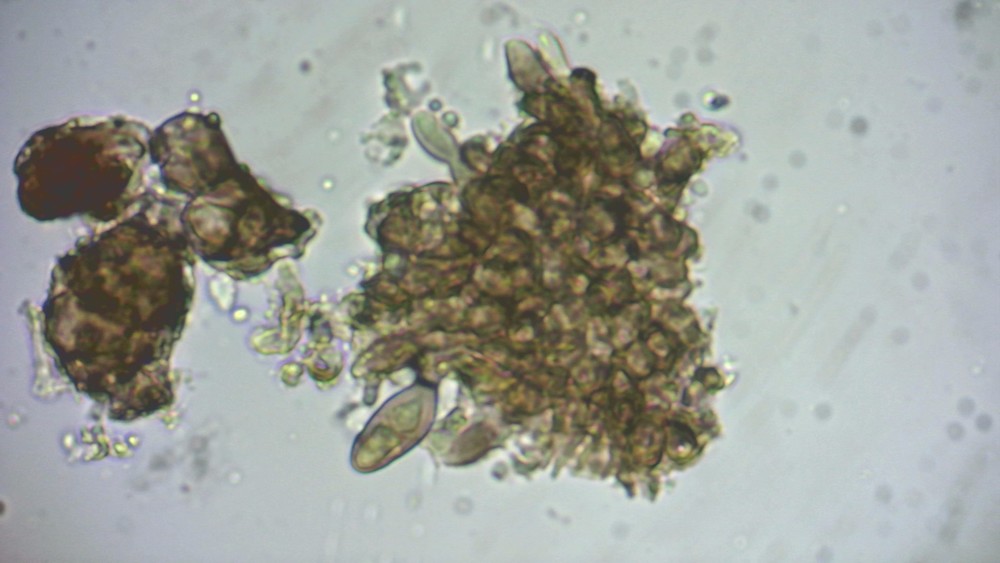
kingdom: Fungi
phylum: Ascomycota
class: Dothideomycetes
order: Pleosporales
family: Phaeosphaeriaceae
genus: Amarenographium
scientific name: Amarenographium metableticum
